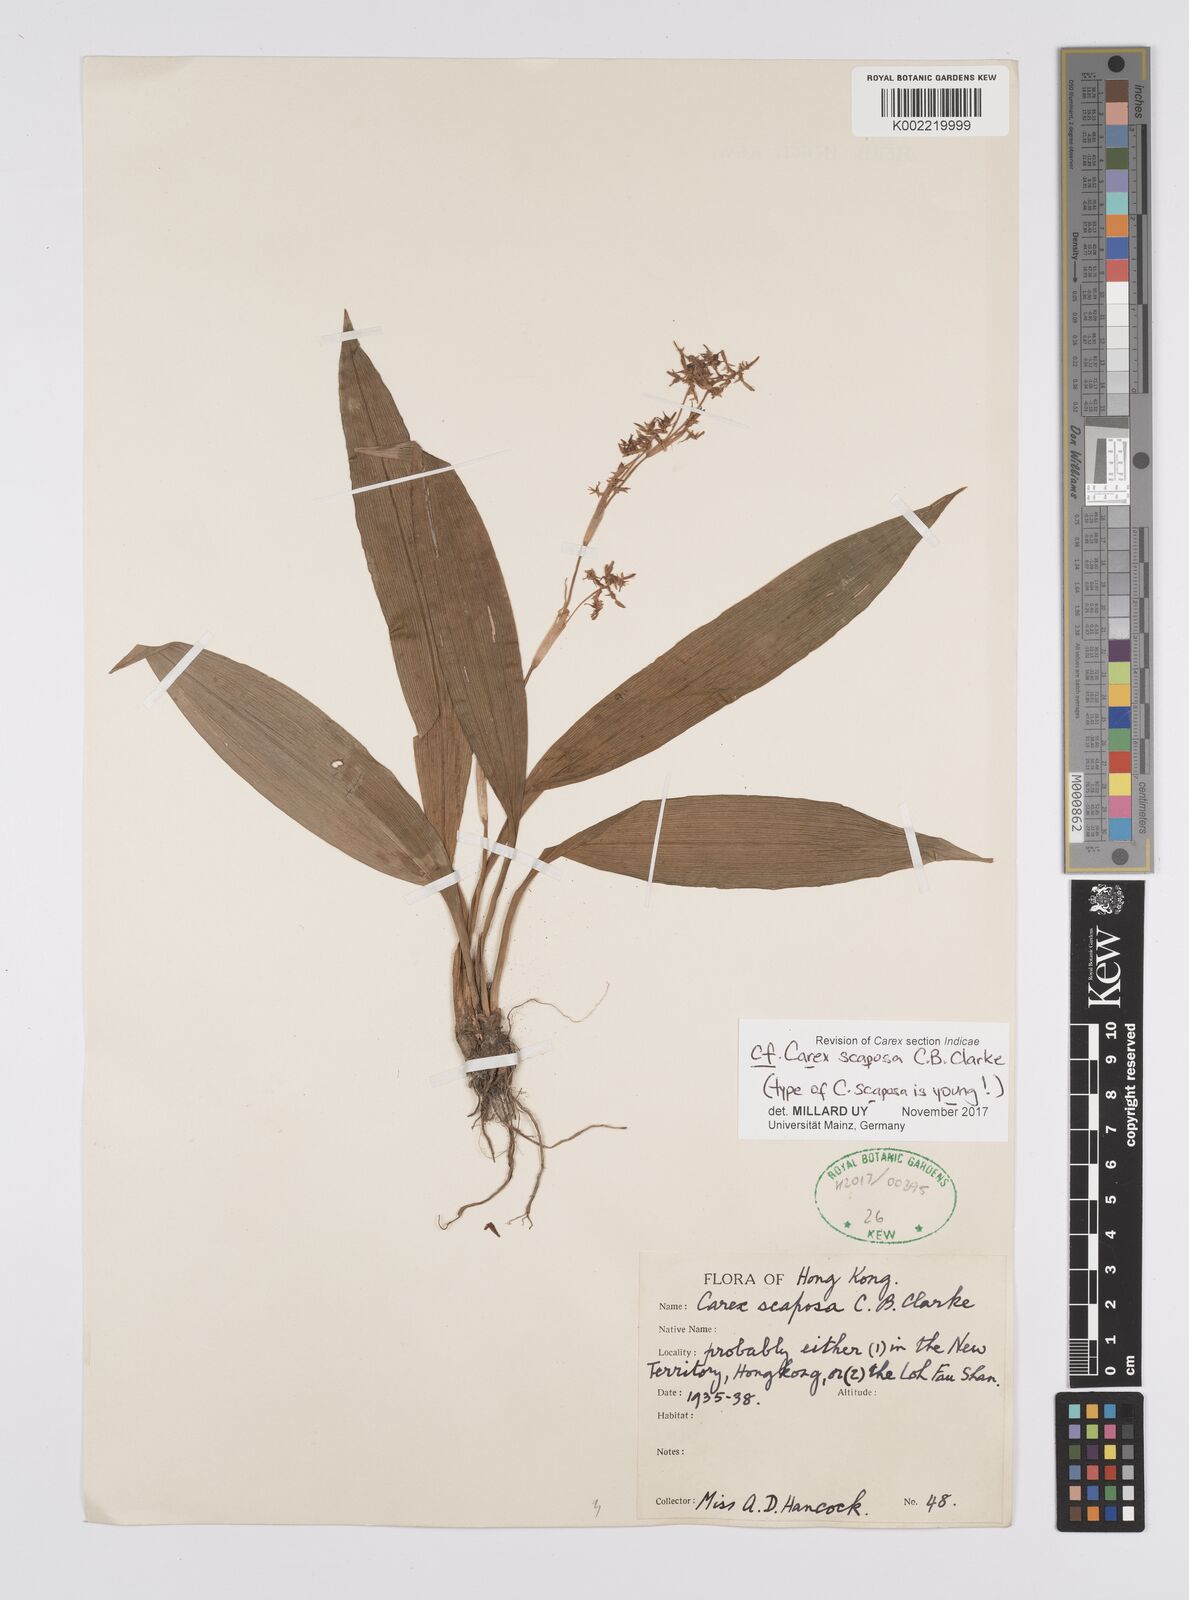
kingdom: Plantae
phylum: Tracheophyta
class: Liliopsida
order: Poales
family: Cyperaceae
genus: Carex
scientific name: Carex scaposa
